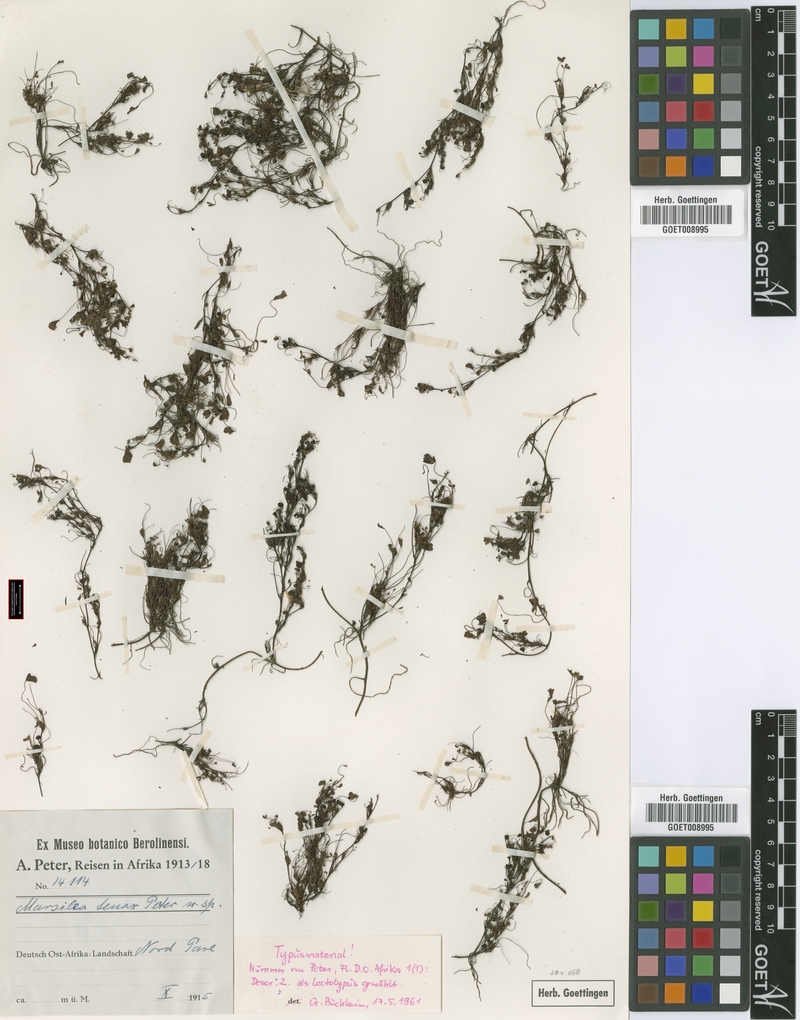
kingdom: Plantae
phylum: Tracheophyta
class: Polypodiopsida
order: Salviniales
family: Marsileaceae
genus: Marsilea
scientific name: Marsilea minuta
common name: Dwarf waterclover
